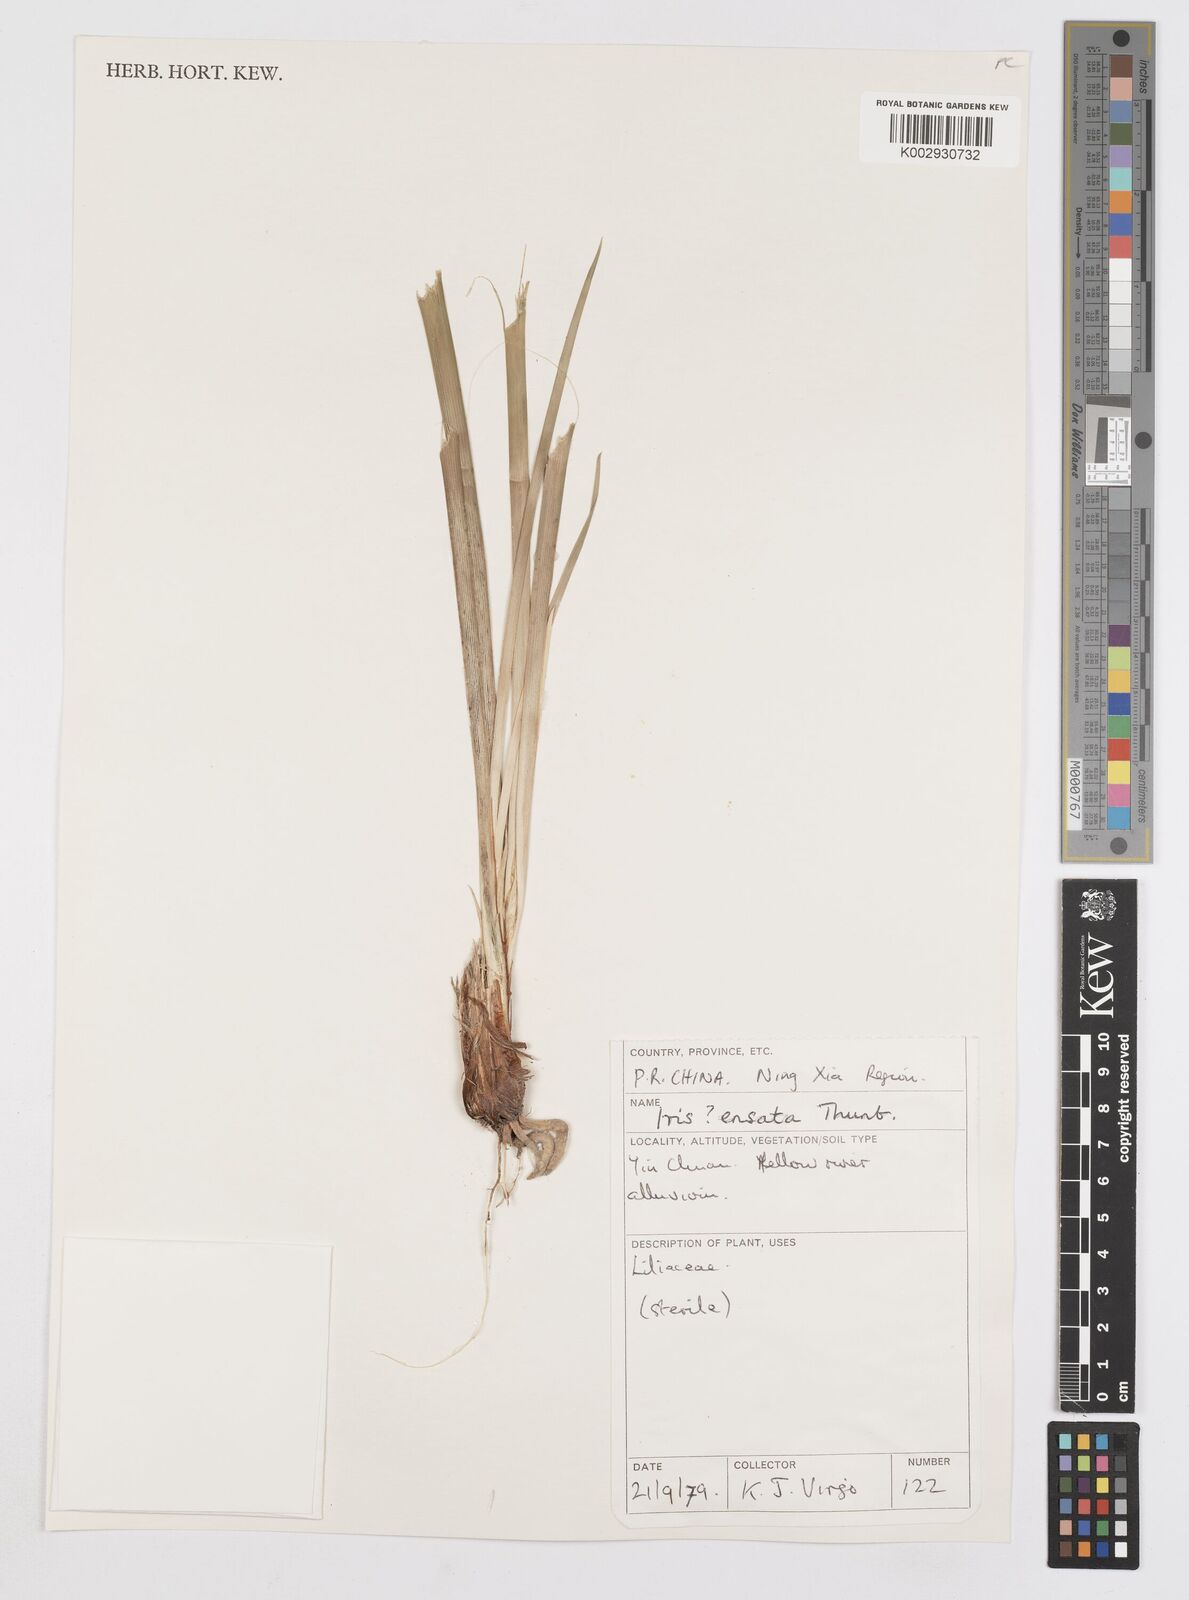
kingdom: Plantae
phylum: Tracheophyta
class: Liliopsida
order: Asparagales
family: Iridaceae
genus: Iris
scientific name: Iris ensata
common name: Beaked iris
